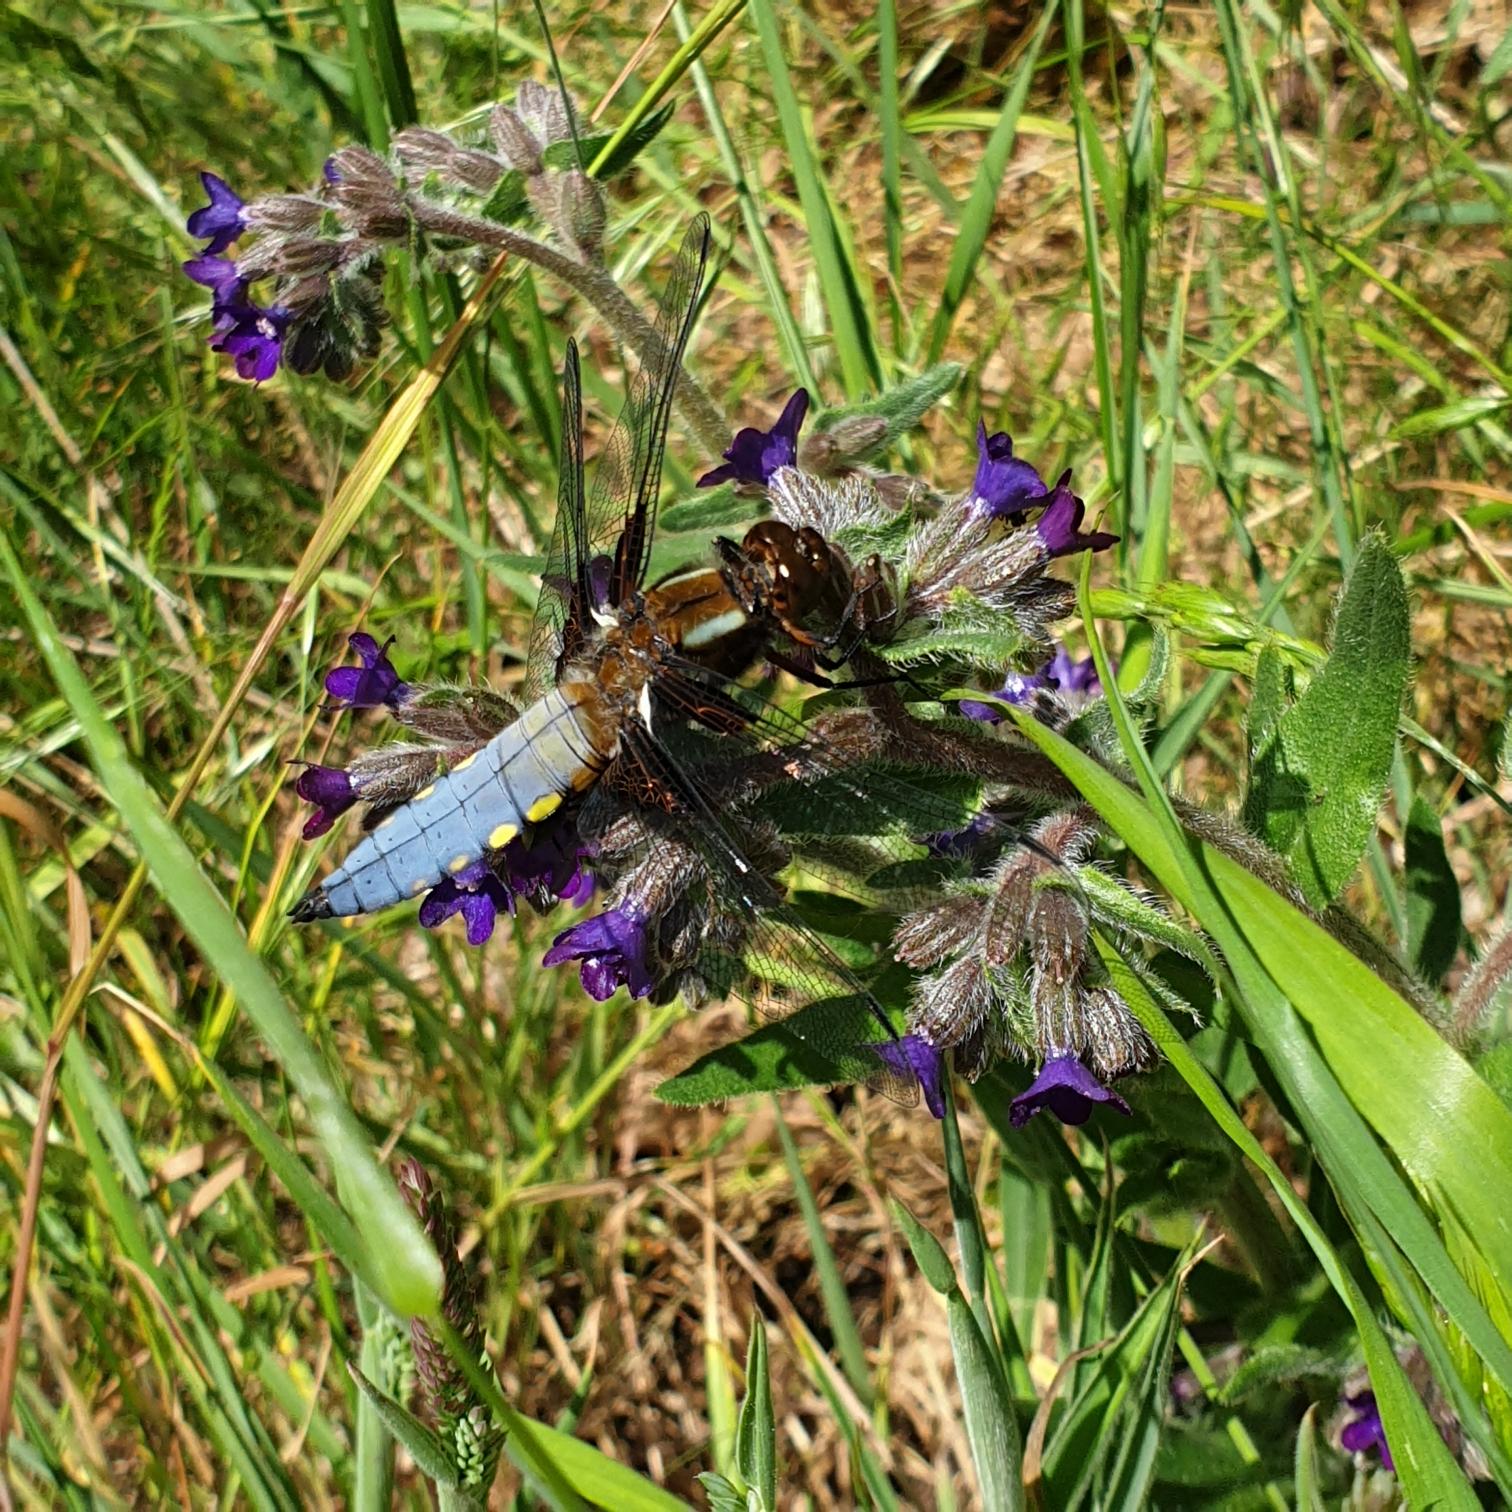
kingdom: Animalia
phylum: Arthropoda
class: Insecta
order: Odonata
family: Libellulidae
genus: Libellula
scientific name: Libellula depressa
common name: Blå libel
